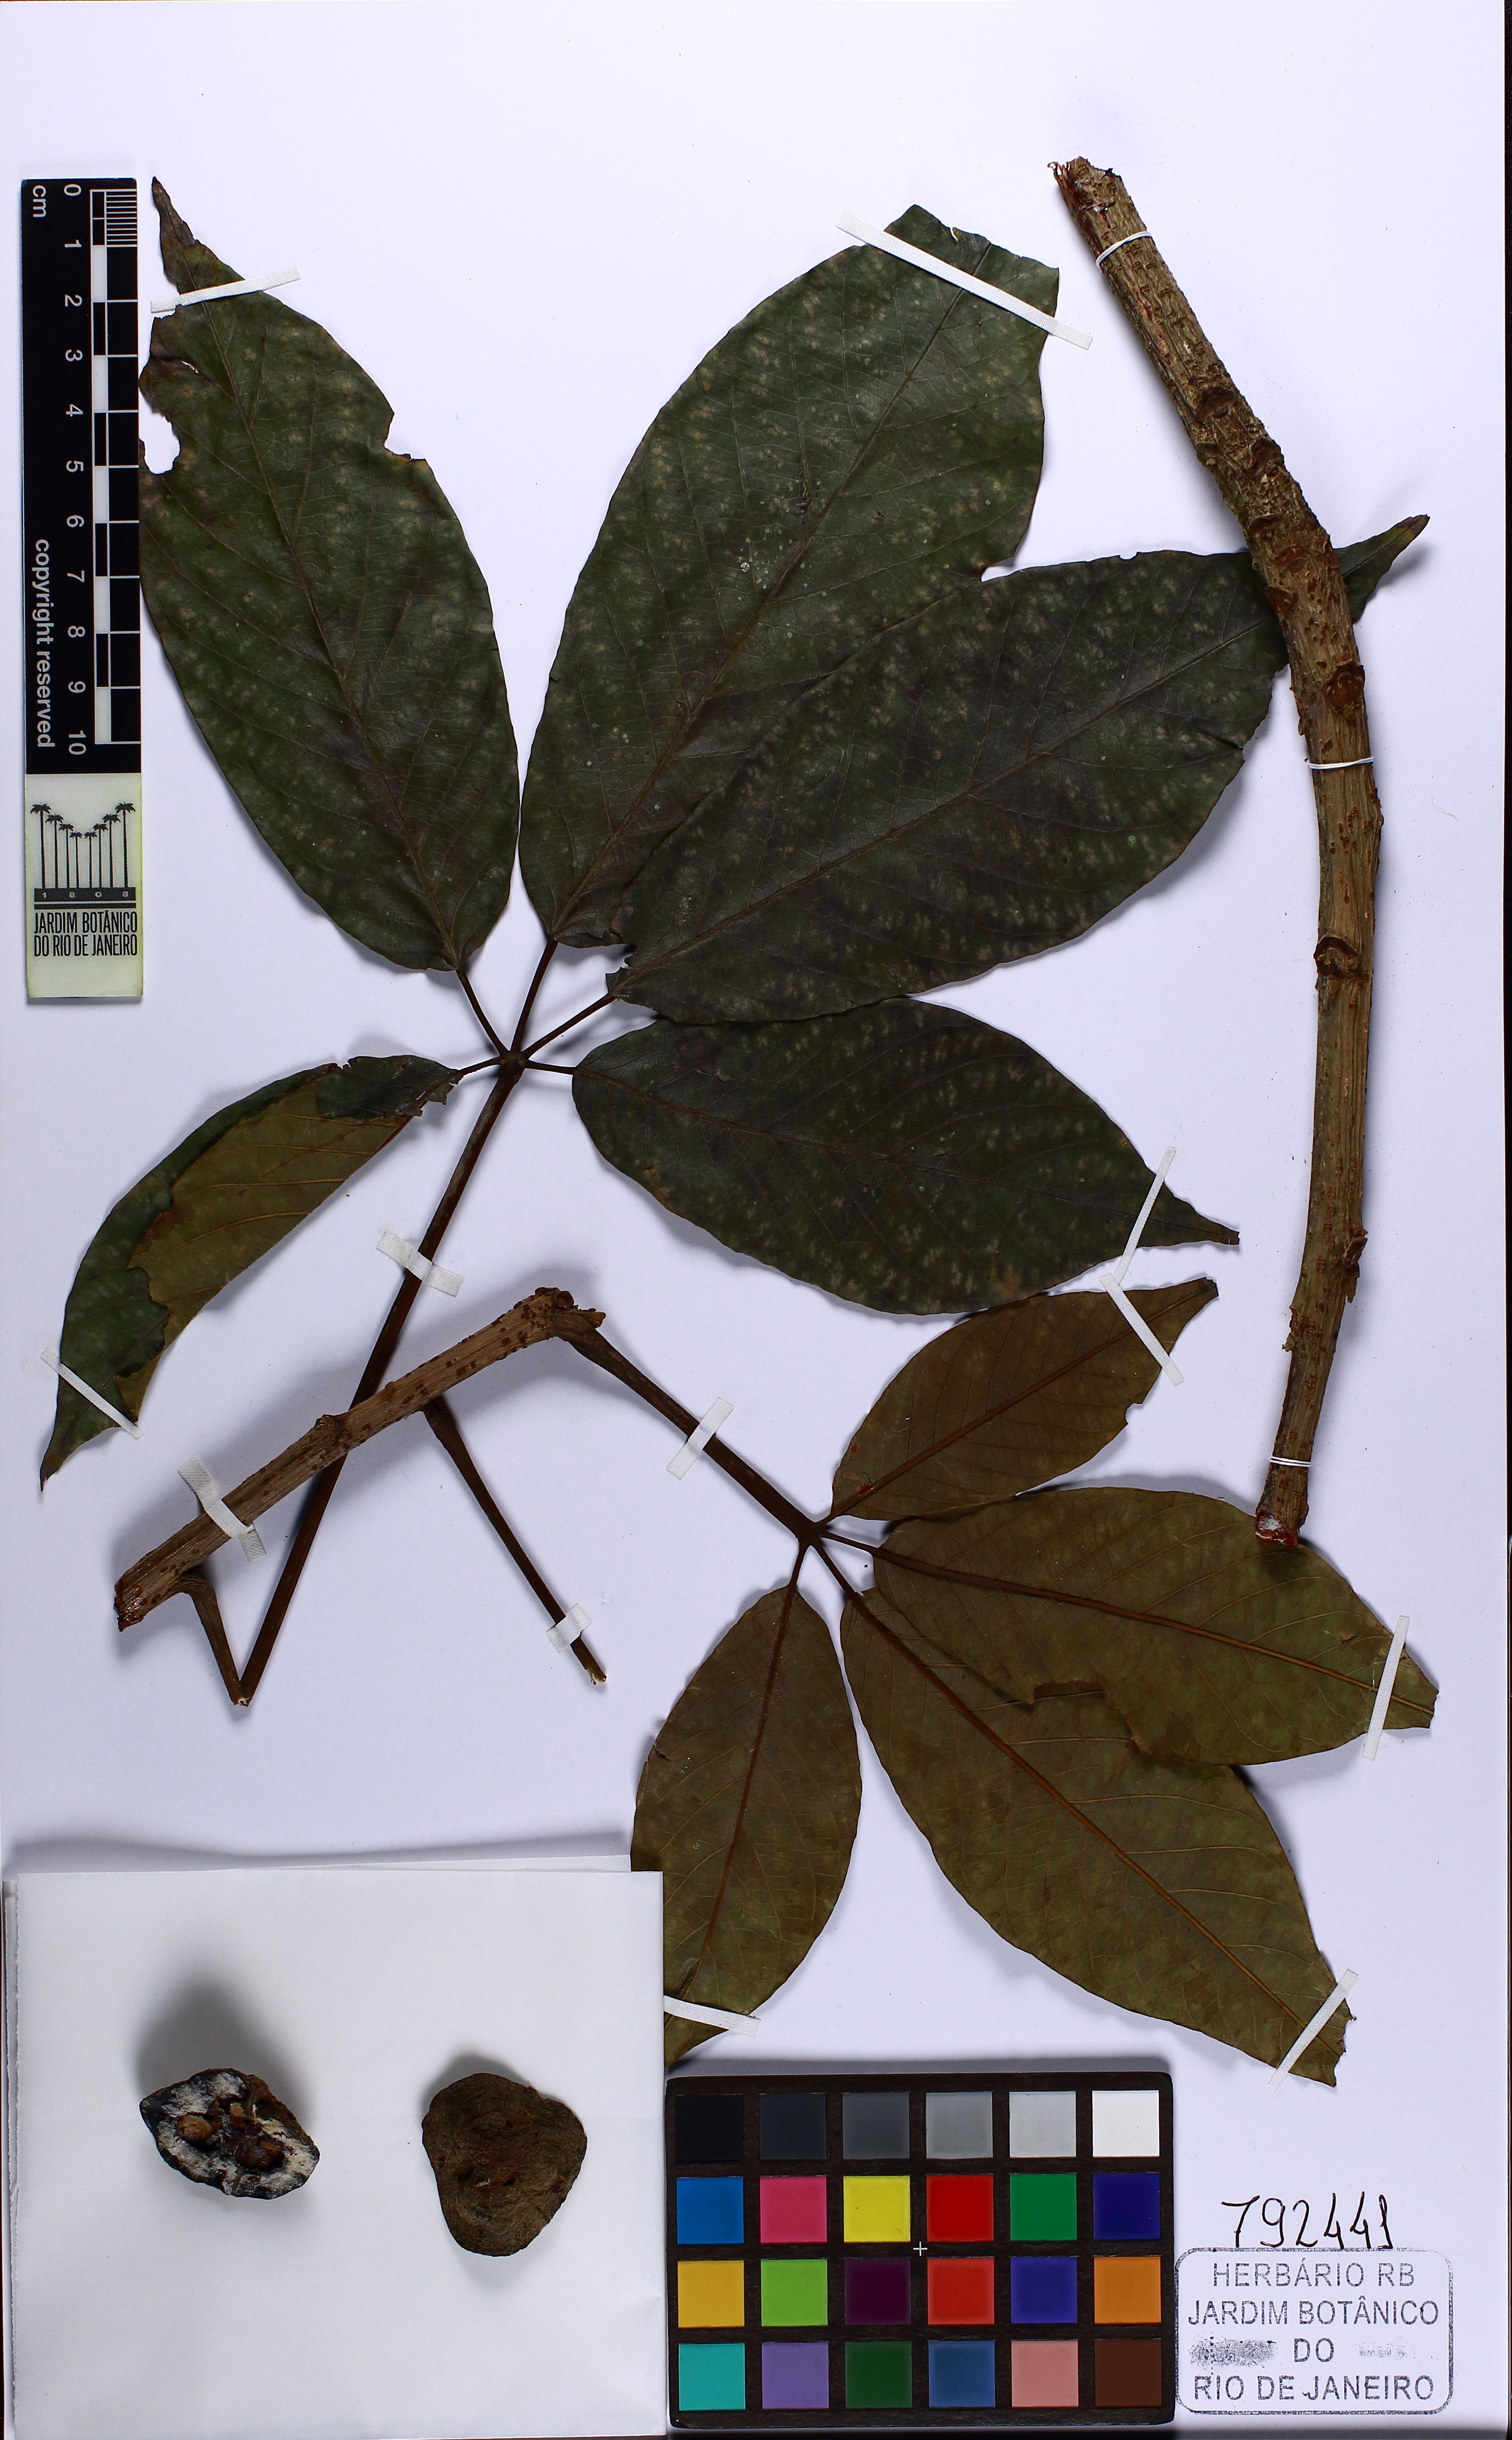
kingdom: Plantae
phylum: Tracheophyta
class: Magnoliopsida
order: Malpighiales
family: Euphorbiaceae
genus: Joannesia
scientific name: Joannesia heveoides
